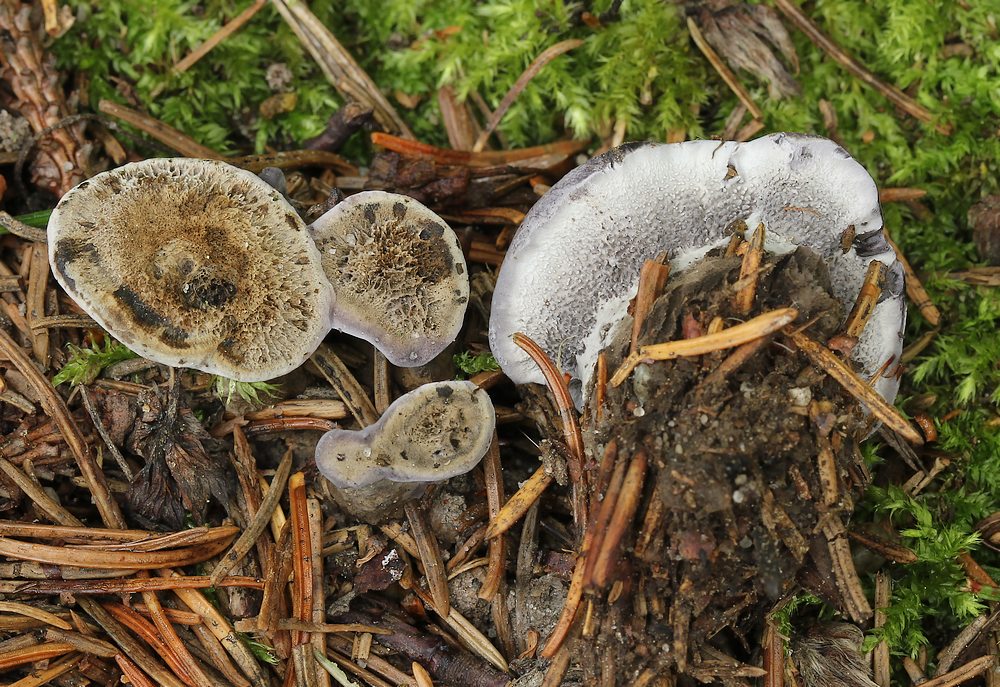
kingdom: Fungi
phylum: Basidiomycota
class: Agaricomycetes
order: Thelephorales
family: Thelephoraceae
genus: Phellodon
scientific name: Phellodon
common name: mørk duftpigsvamp
